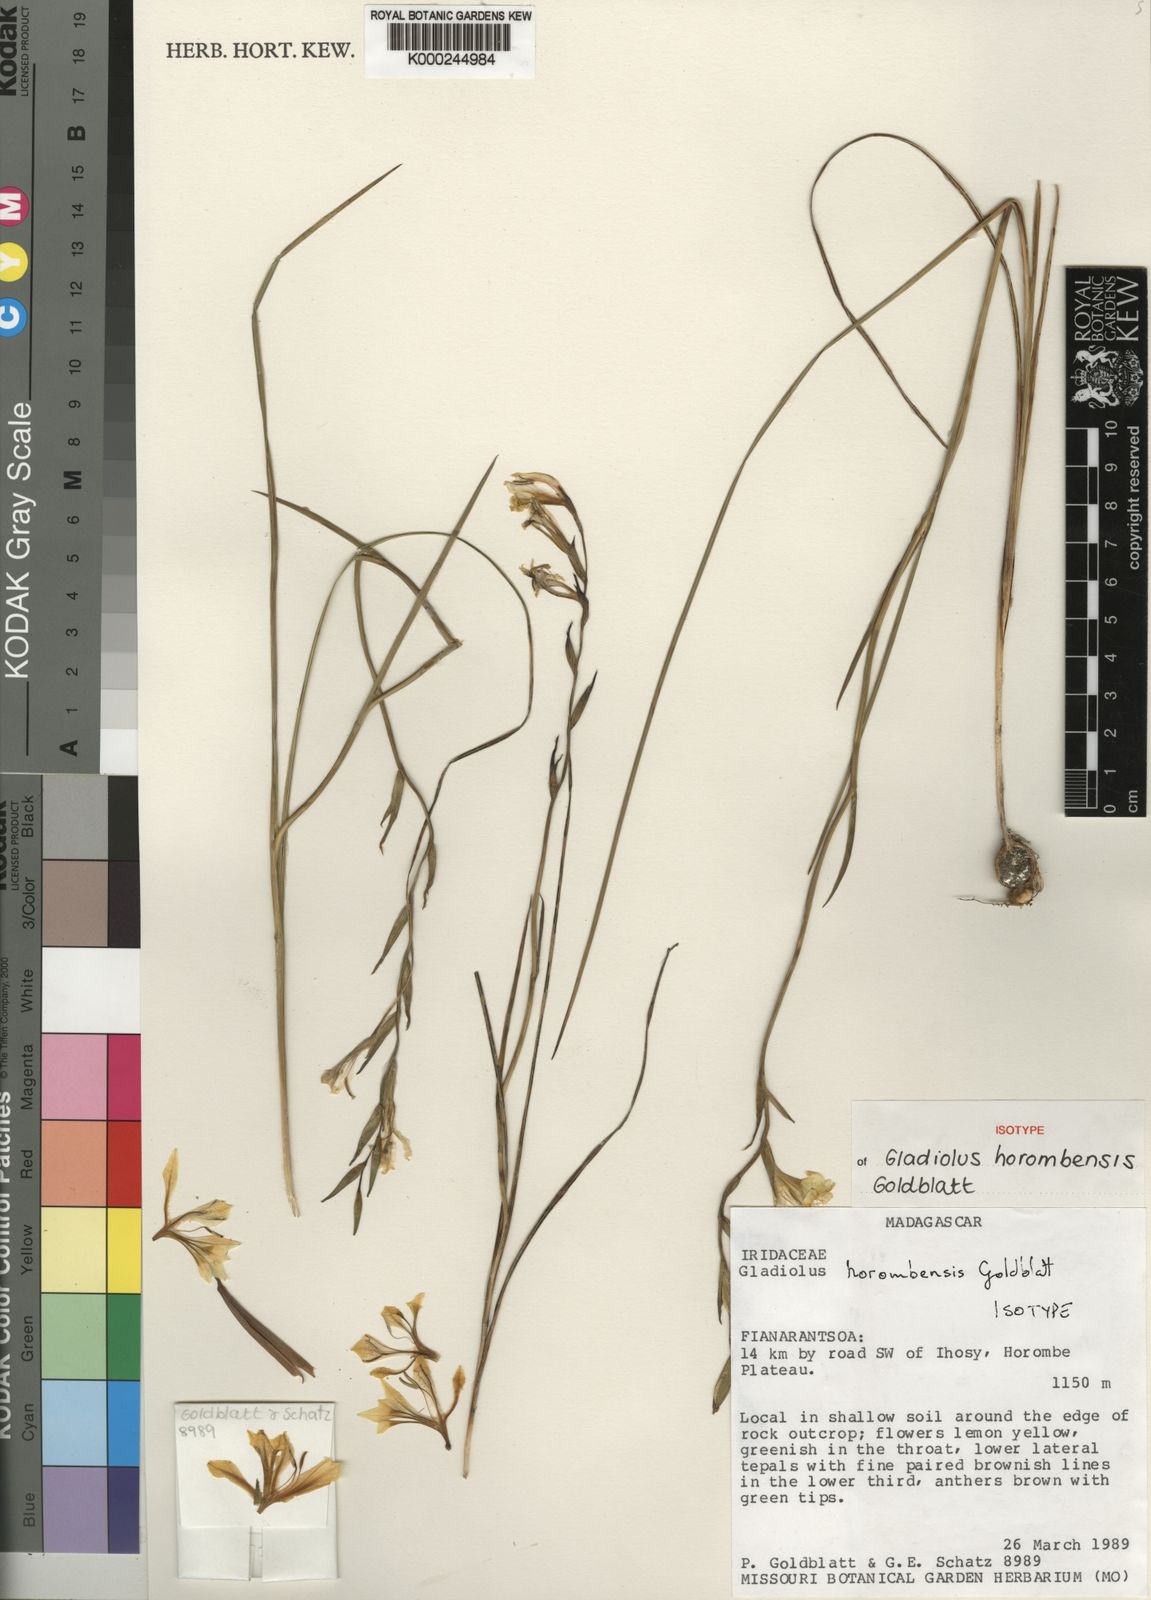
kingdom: Plantae
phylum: Tracheophyta
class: Liliopsida
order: Asparagales
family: Iridaceae
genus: Gladiolus
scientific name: Gladiolus horombensis
